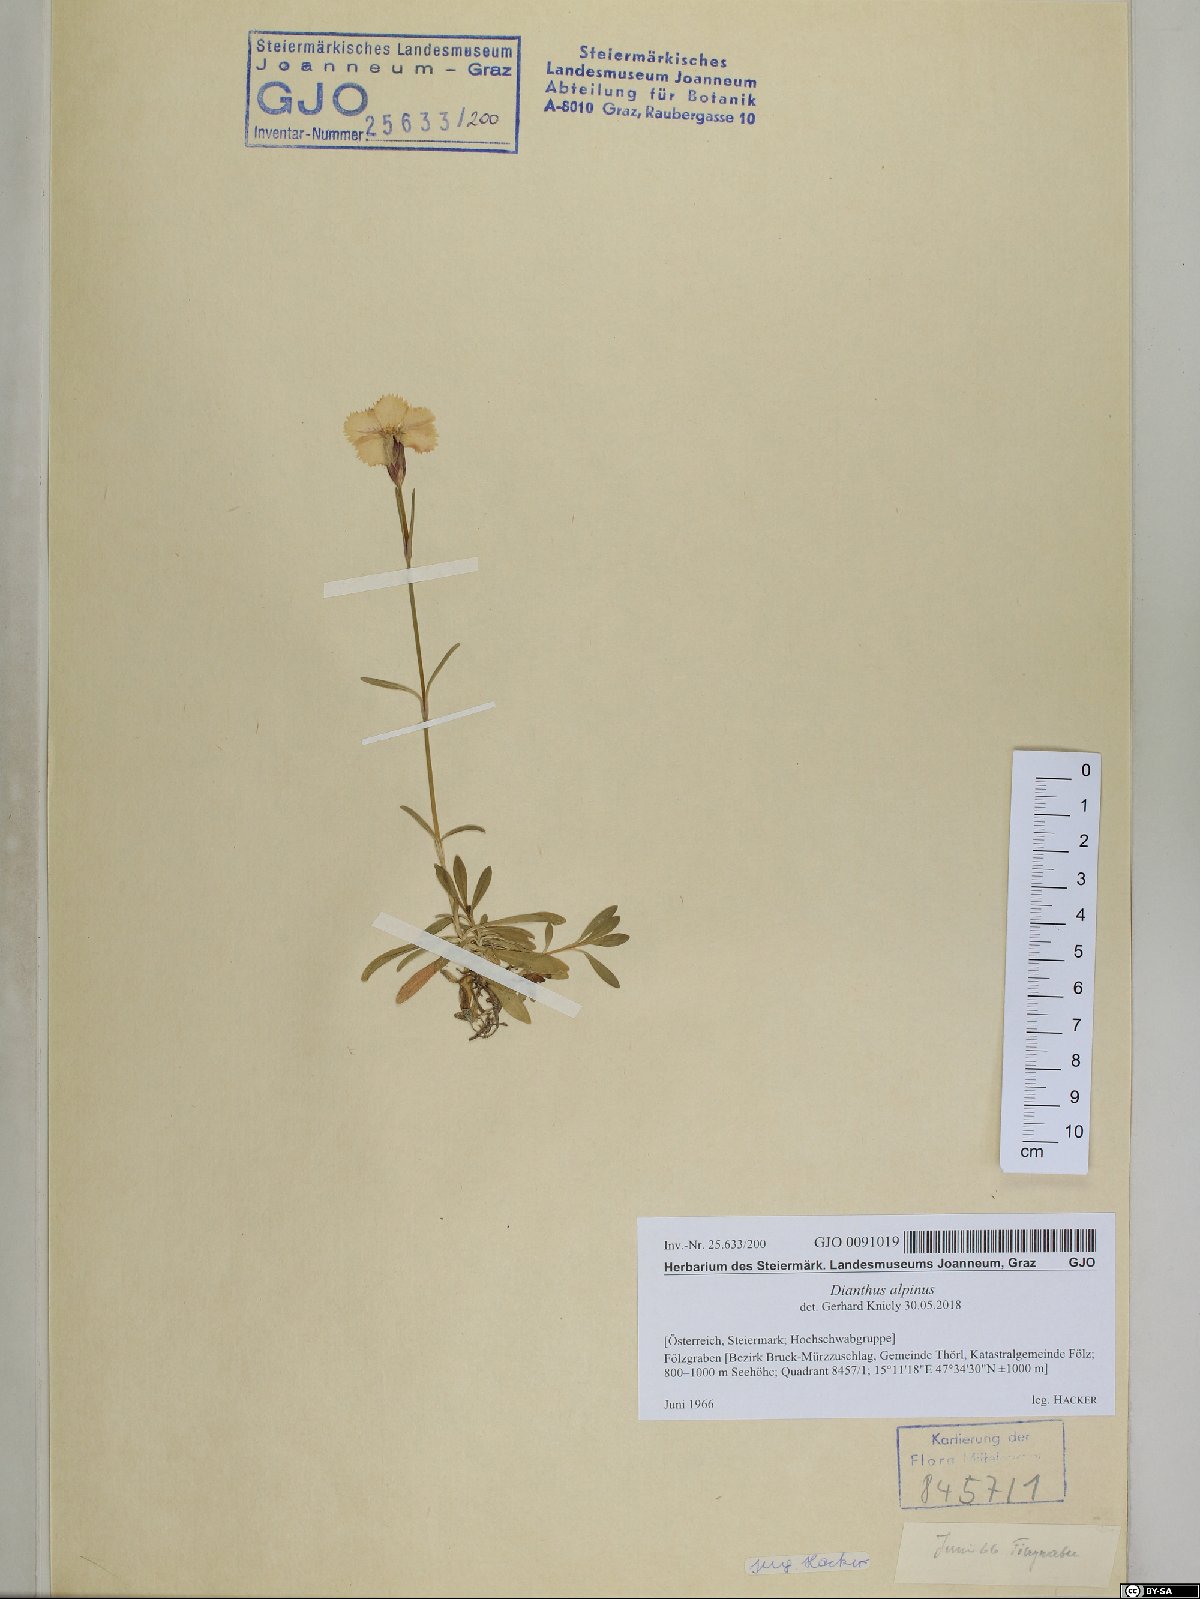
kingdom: Plantae
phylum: Tracheophyta
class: Magnoliopsida
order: Caryophyllales
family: Caryophyllaceae
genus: Dianthus
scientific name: Dianthus alpinus
